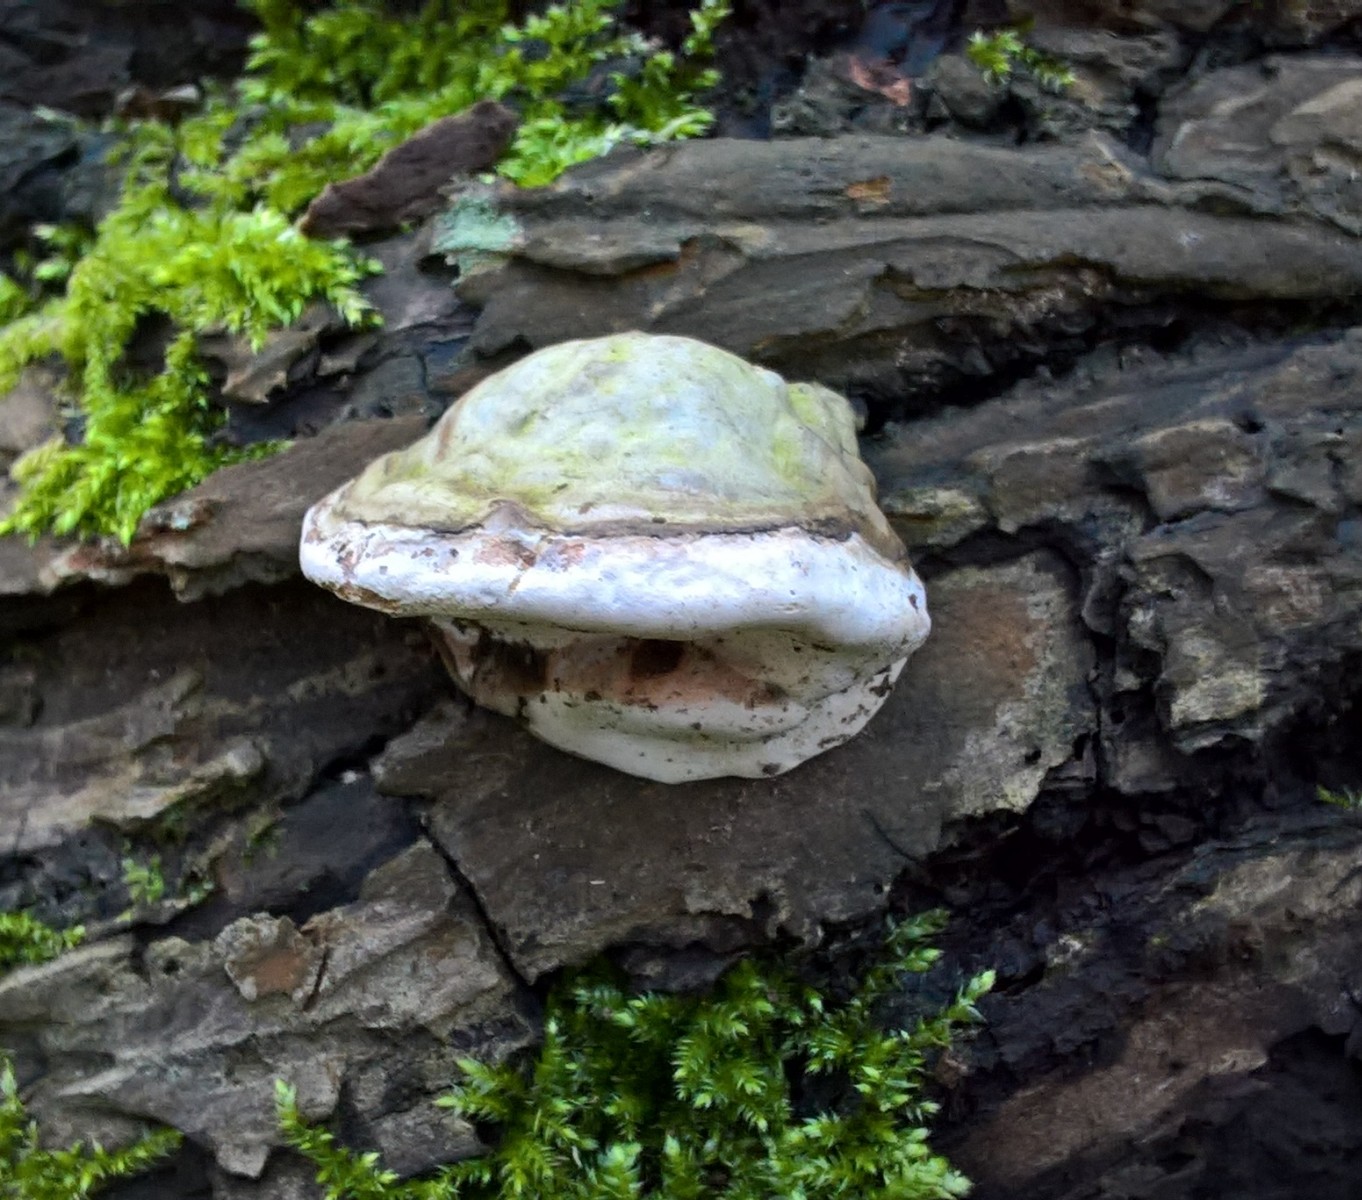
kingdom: Fungi
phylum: Basidiomycota
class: Agaricomycetes
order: Polyporales
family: Polyporaceae
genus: Fomes
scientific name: Fomes fomentarius
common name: tøndersvamp
